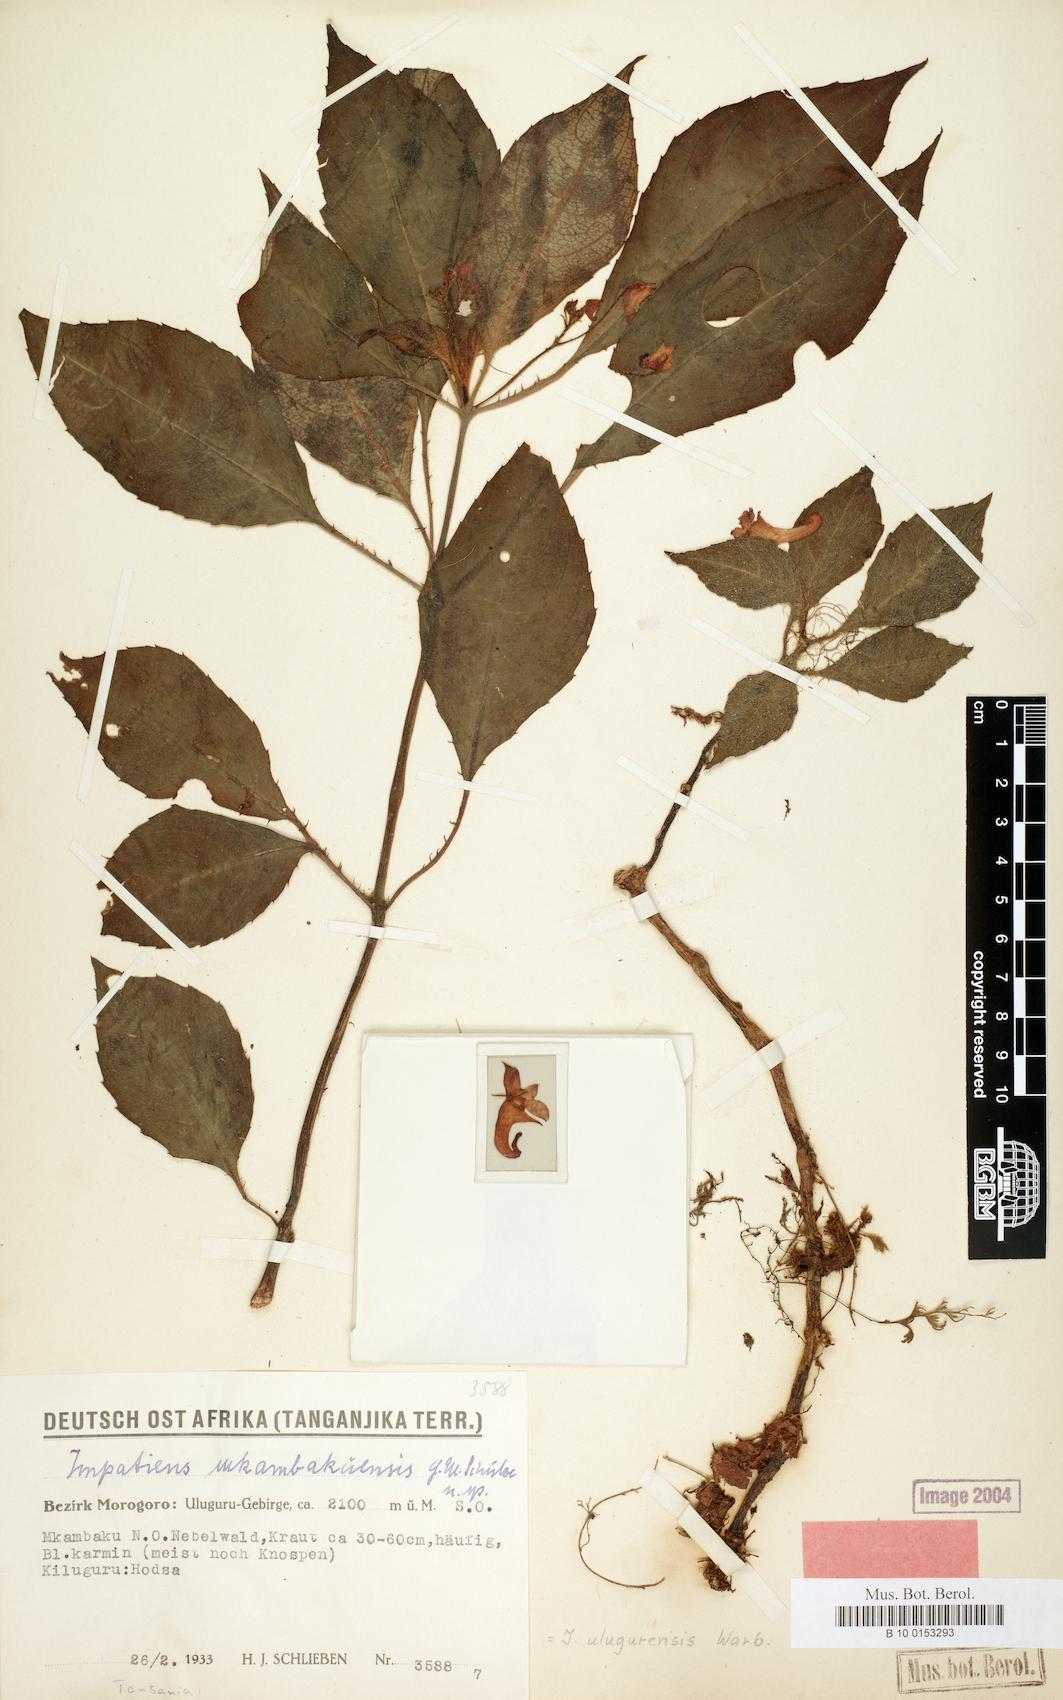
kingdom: Plantae
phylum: Tracheophyta
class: Magnoliopsida
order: Ericales
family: Balsaminaceae
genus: Impatiens
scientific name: Impatiens ulugurensis
